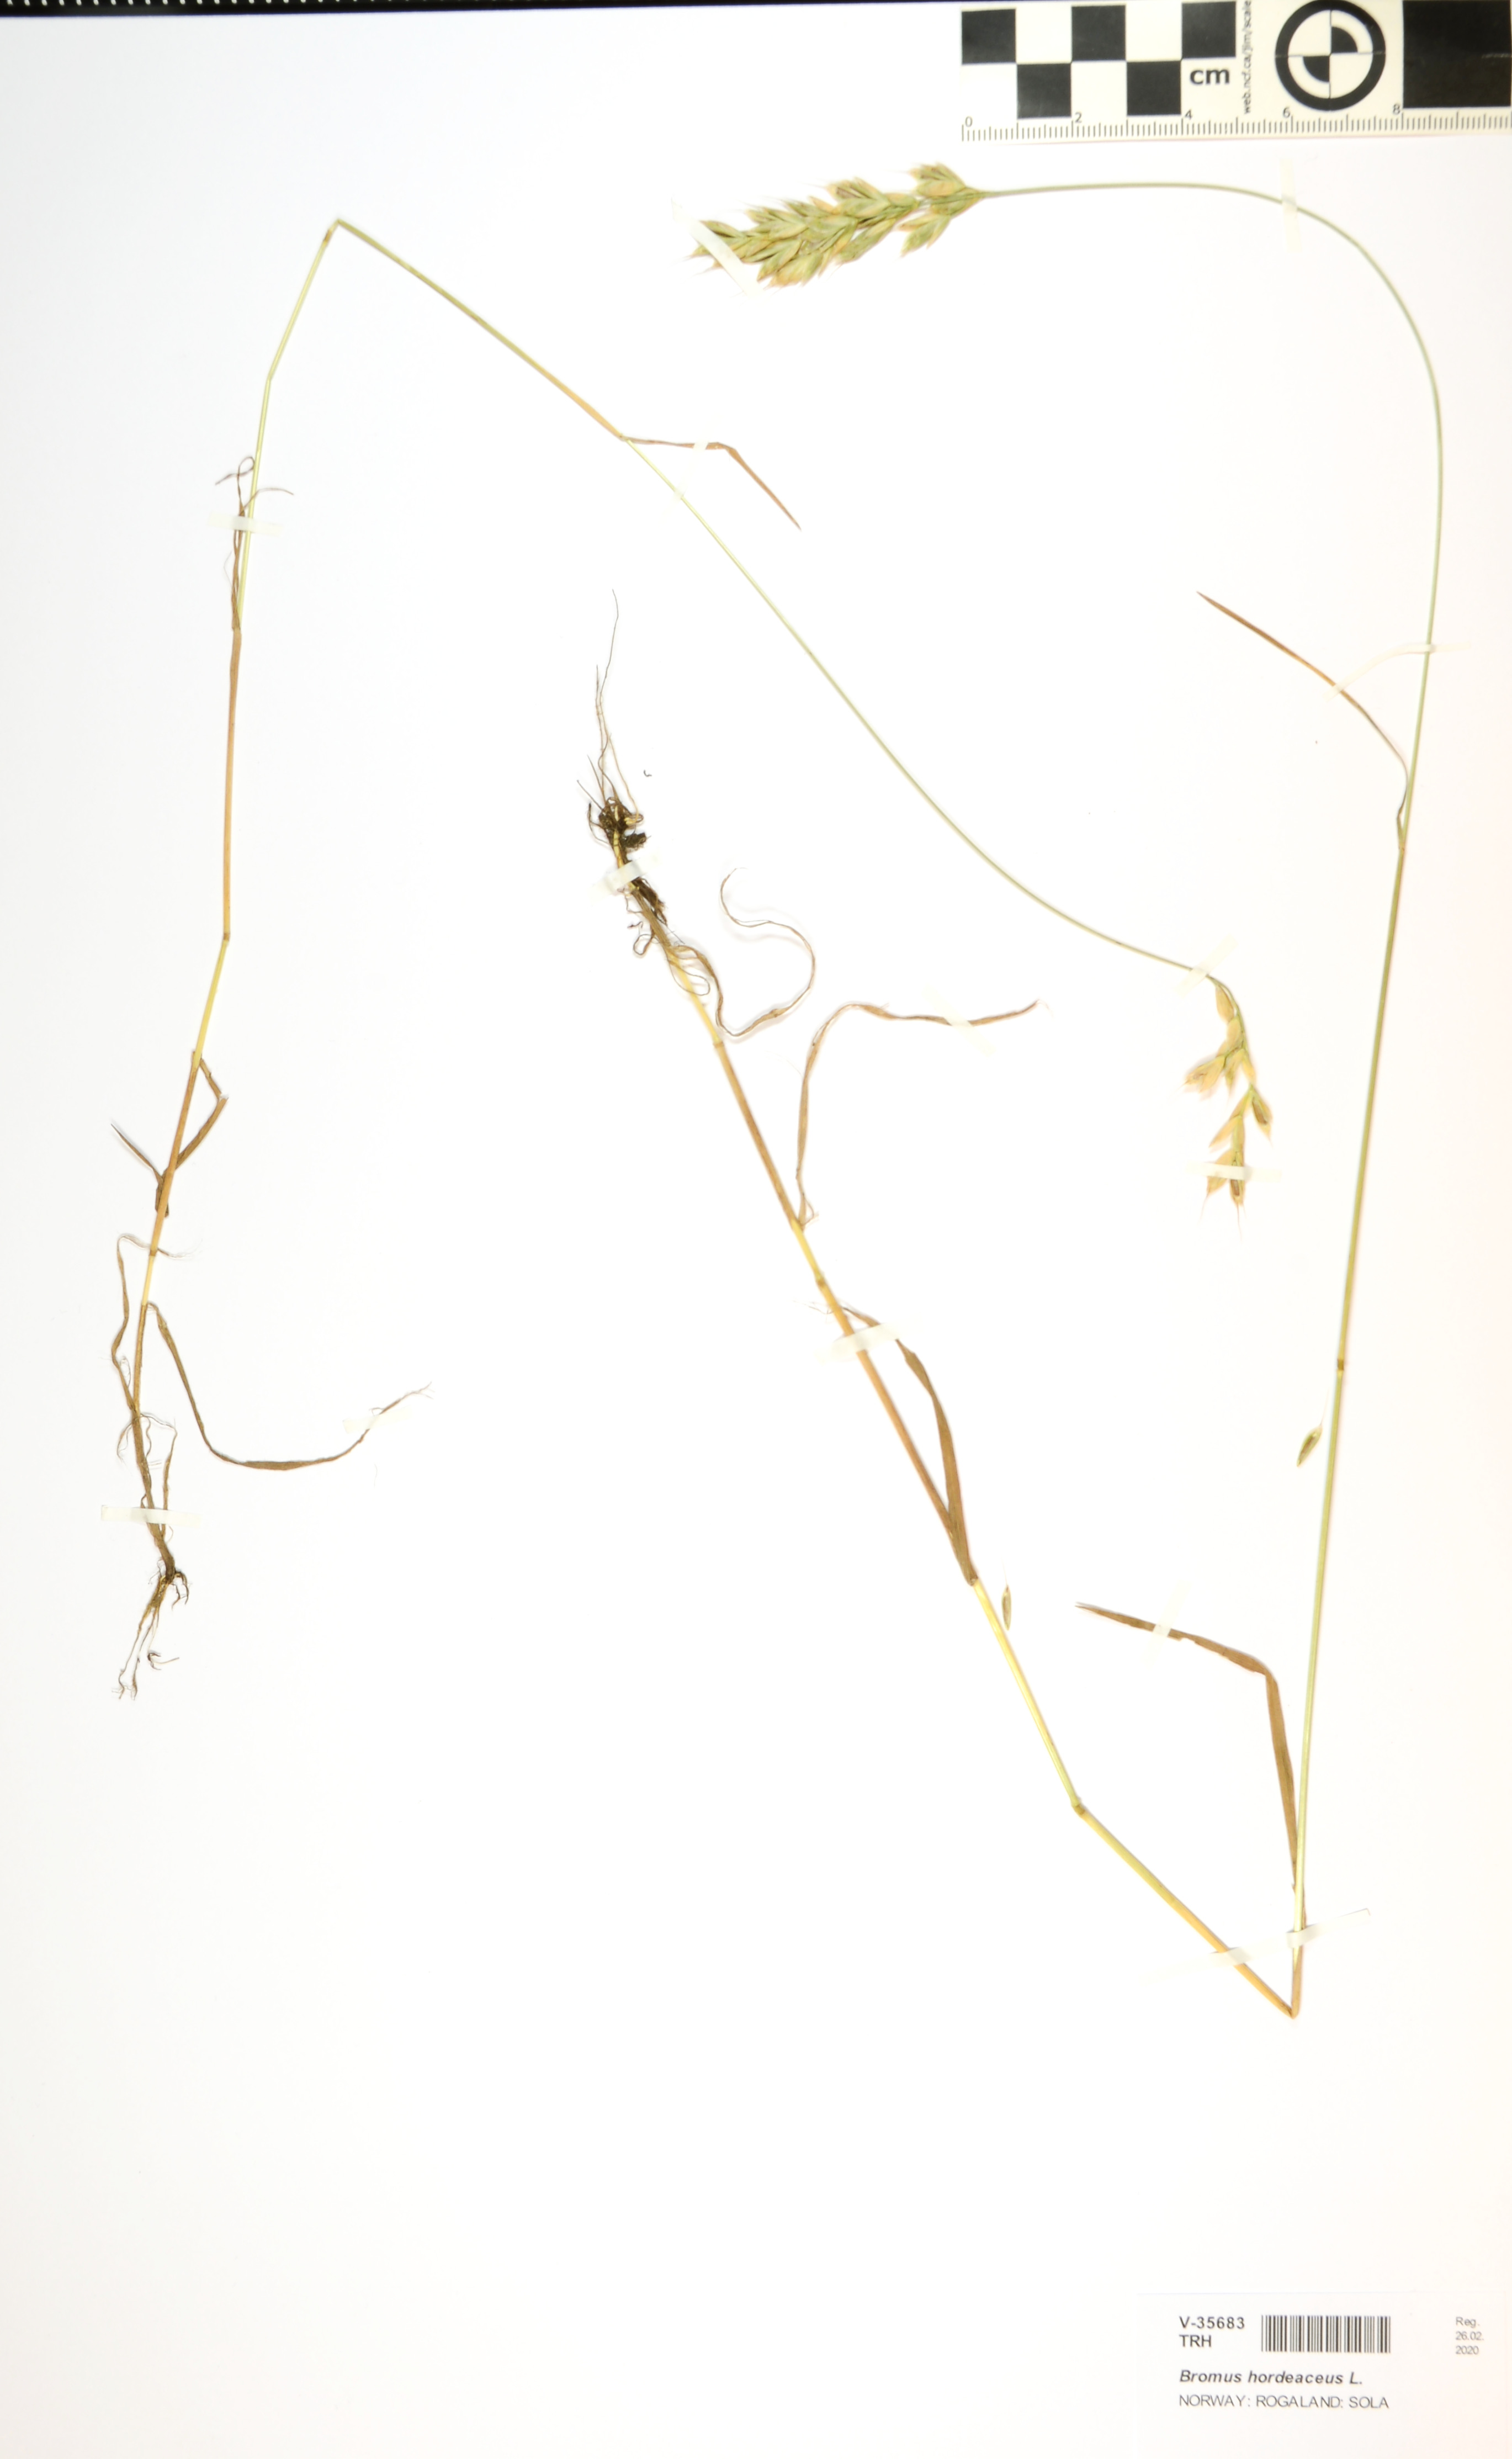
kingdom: Plantae
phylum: Tracheophyta
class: Liliopsida
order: Poales
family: Poaceae
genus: Bromus
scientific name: Bromus hordeaceus
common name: Soft brome
